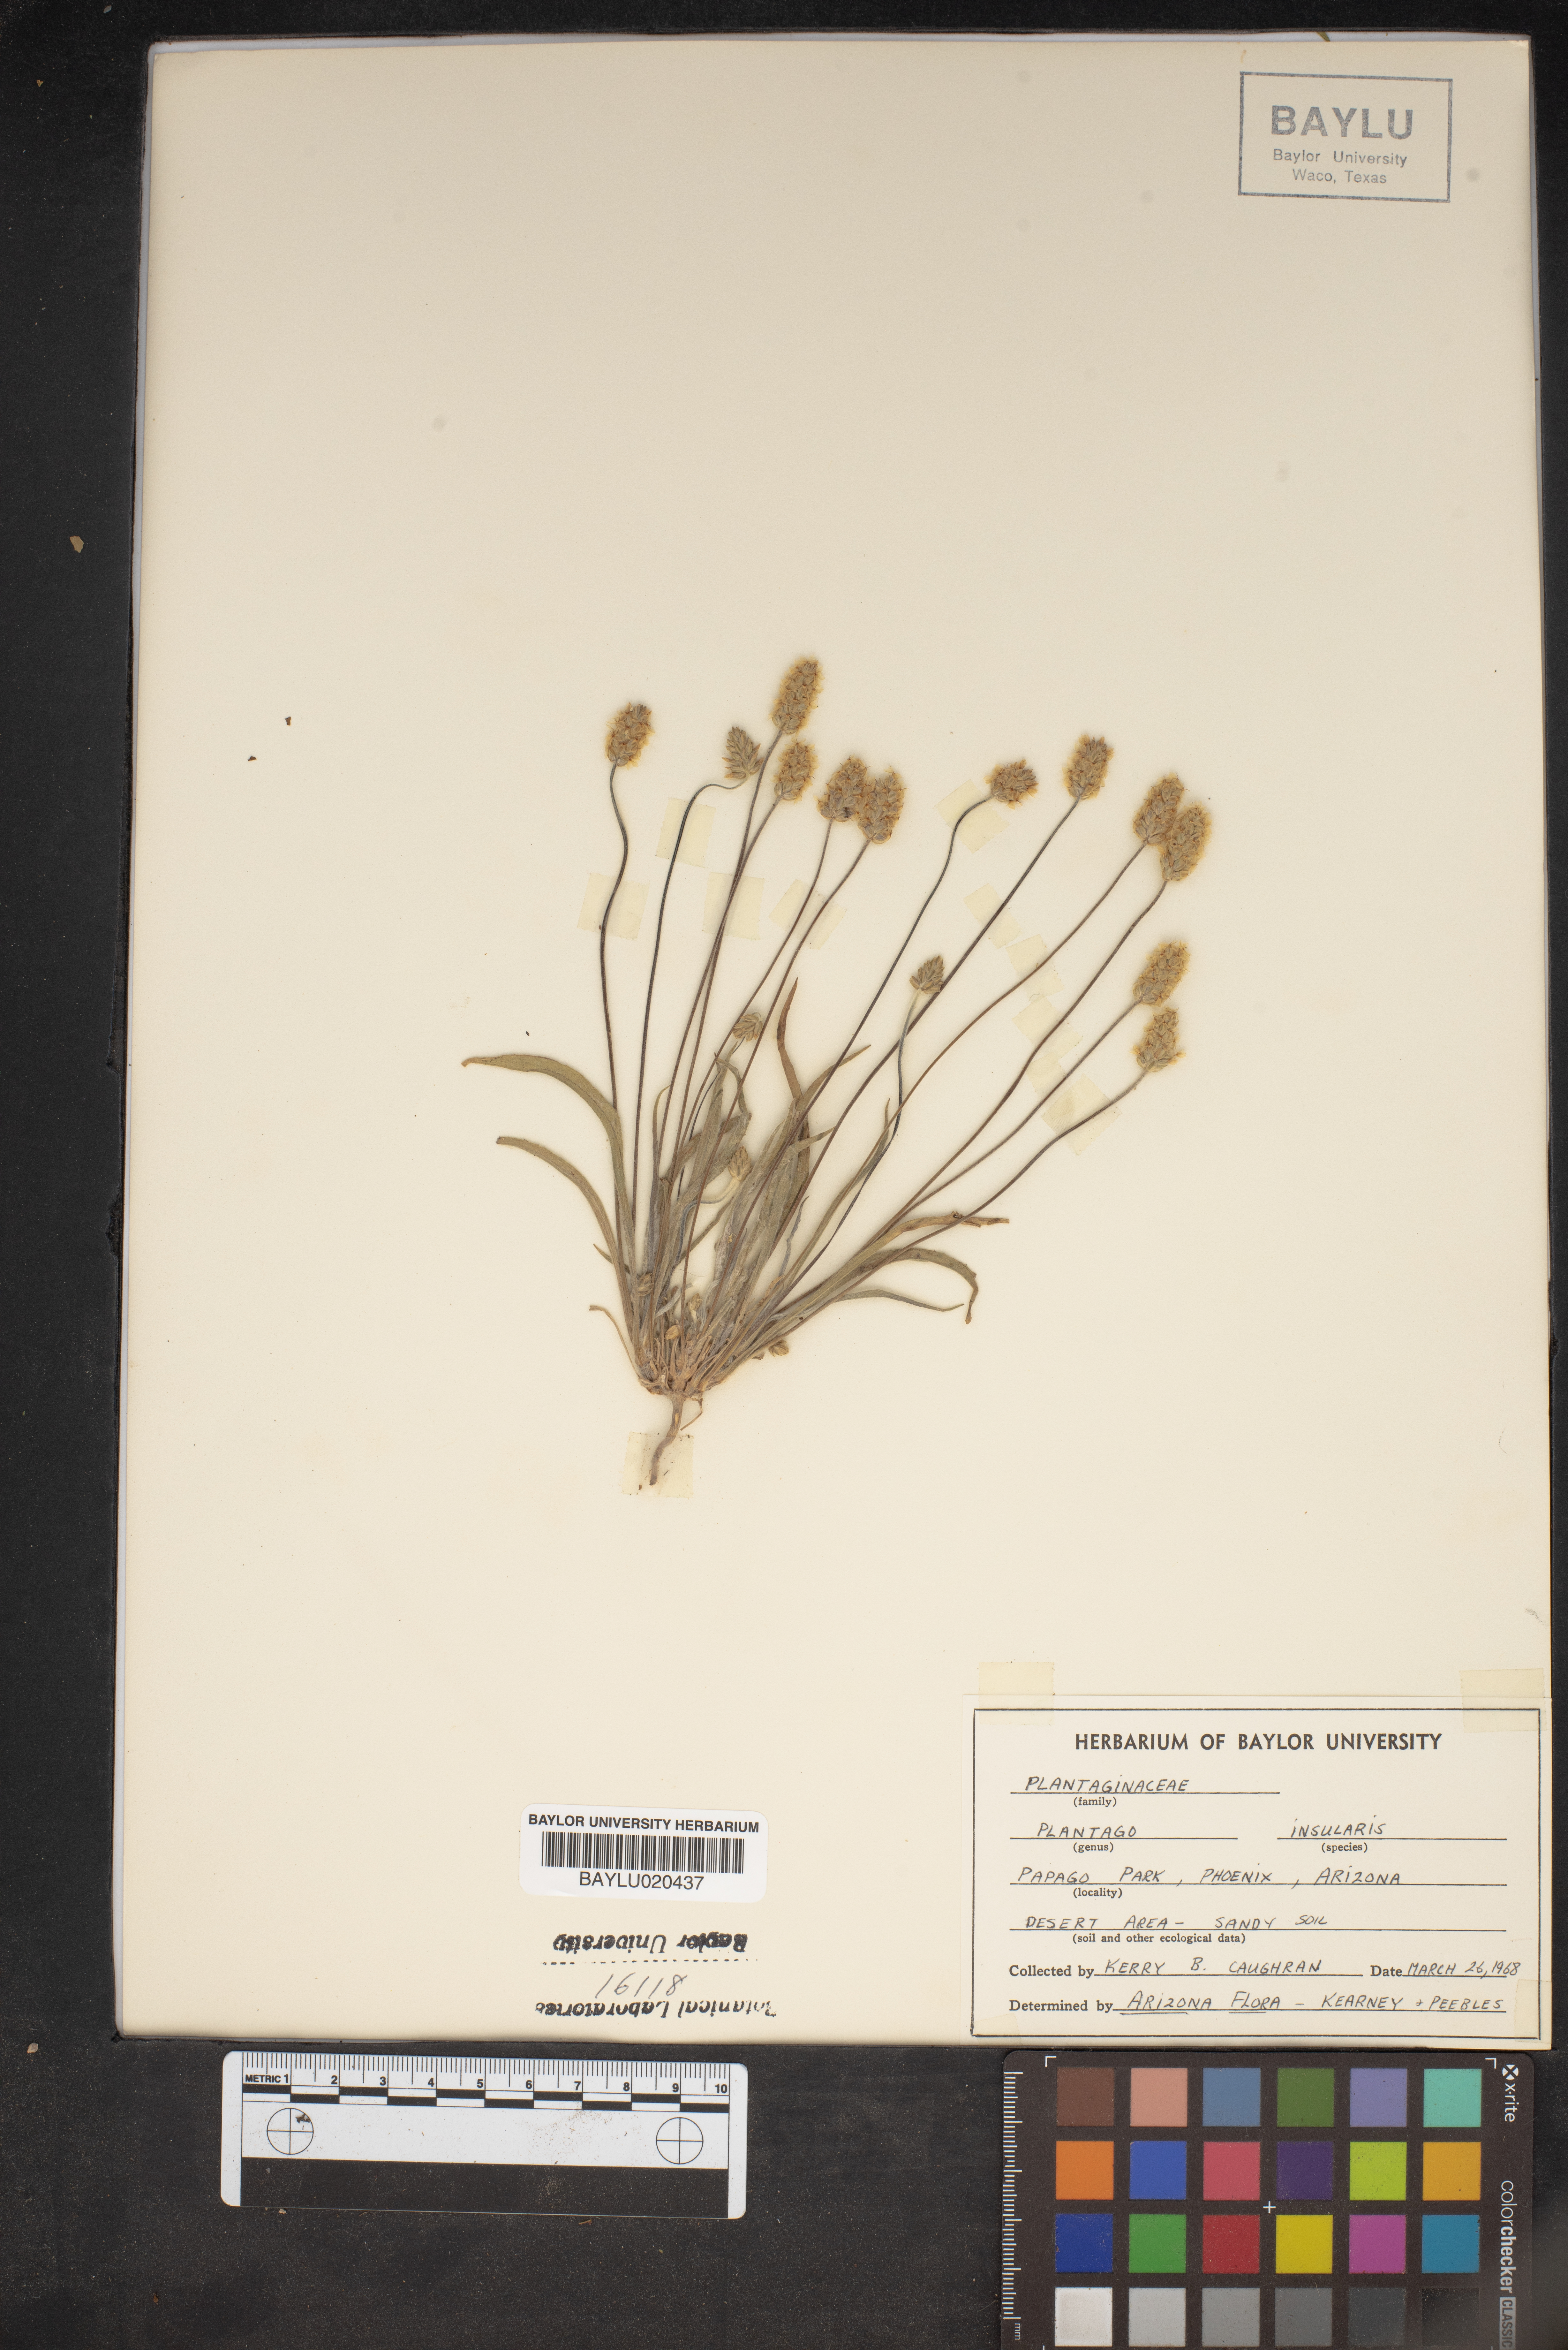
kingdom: Plantae
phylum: Tracheophyta
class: Magnoliopsida
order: Lamiales
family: Plantaginaceae
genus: Plantago
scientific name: Plantago ovata
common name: Blond plantain
